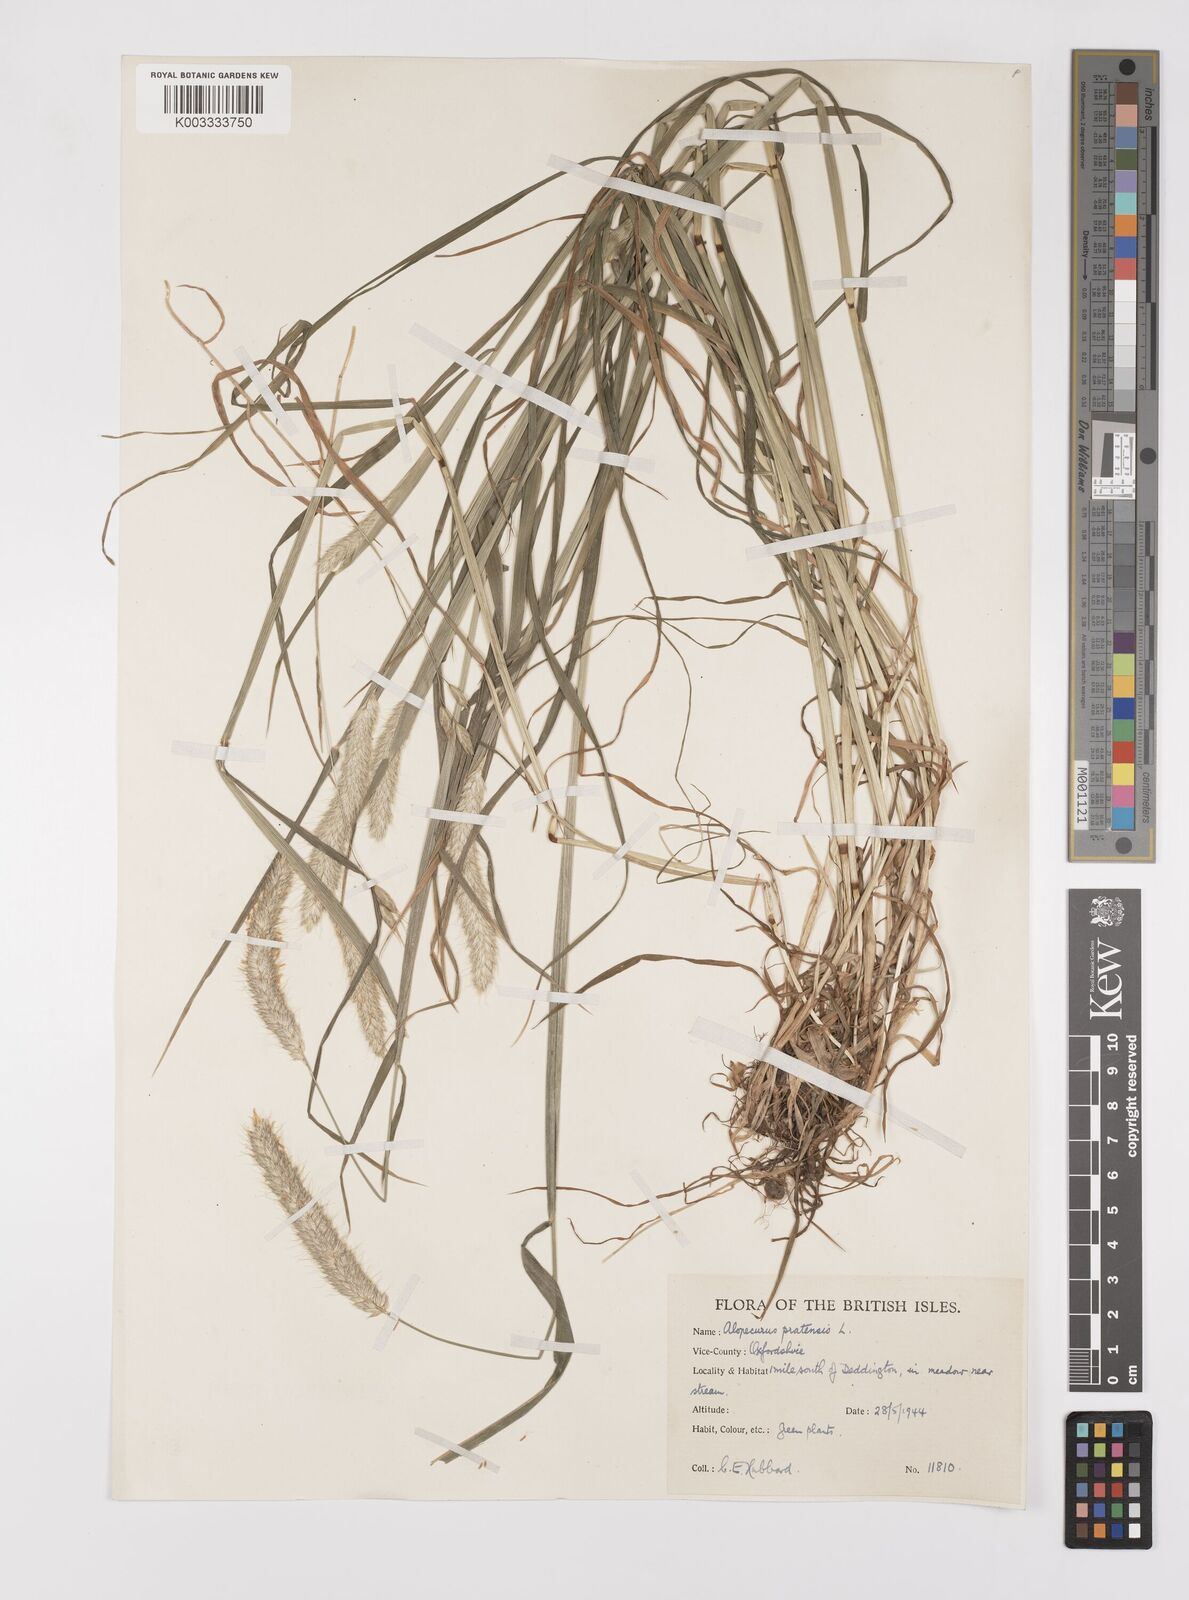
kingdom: Plantae
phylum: Tracheophyta
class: Liliopsida
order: Poales
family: Poaceae
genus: Alopecurus
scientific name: Alopecurus pratensis
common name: Meadow foxtail
